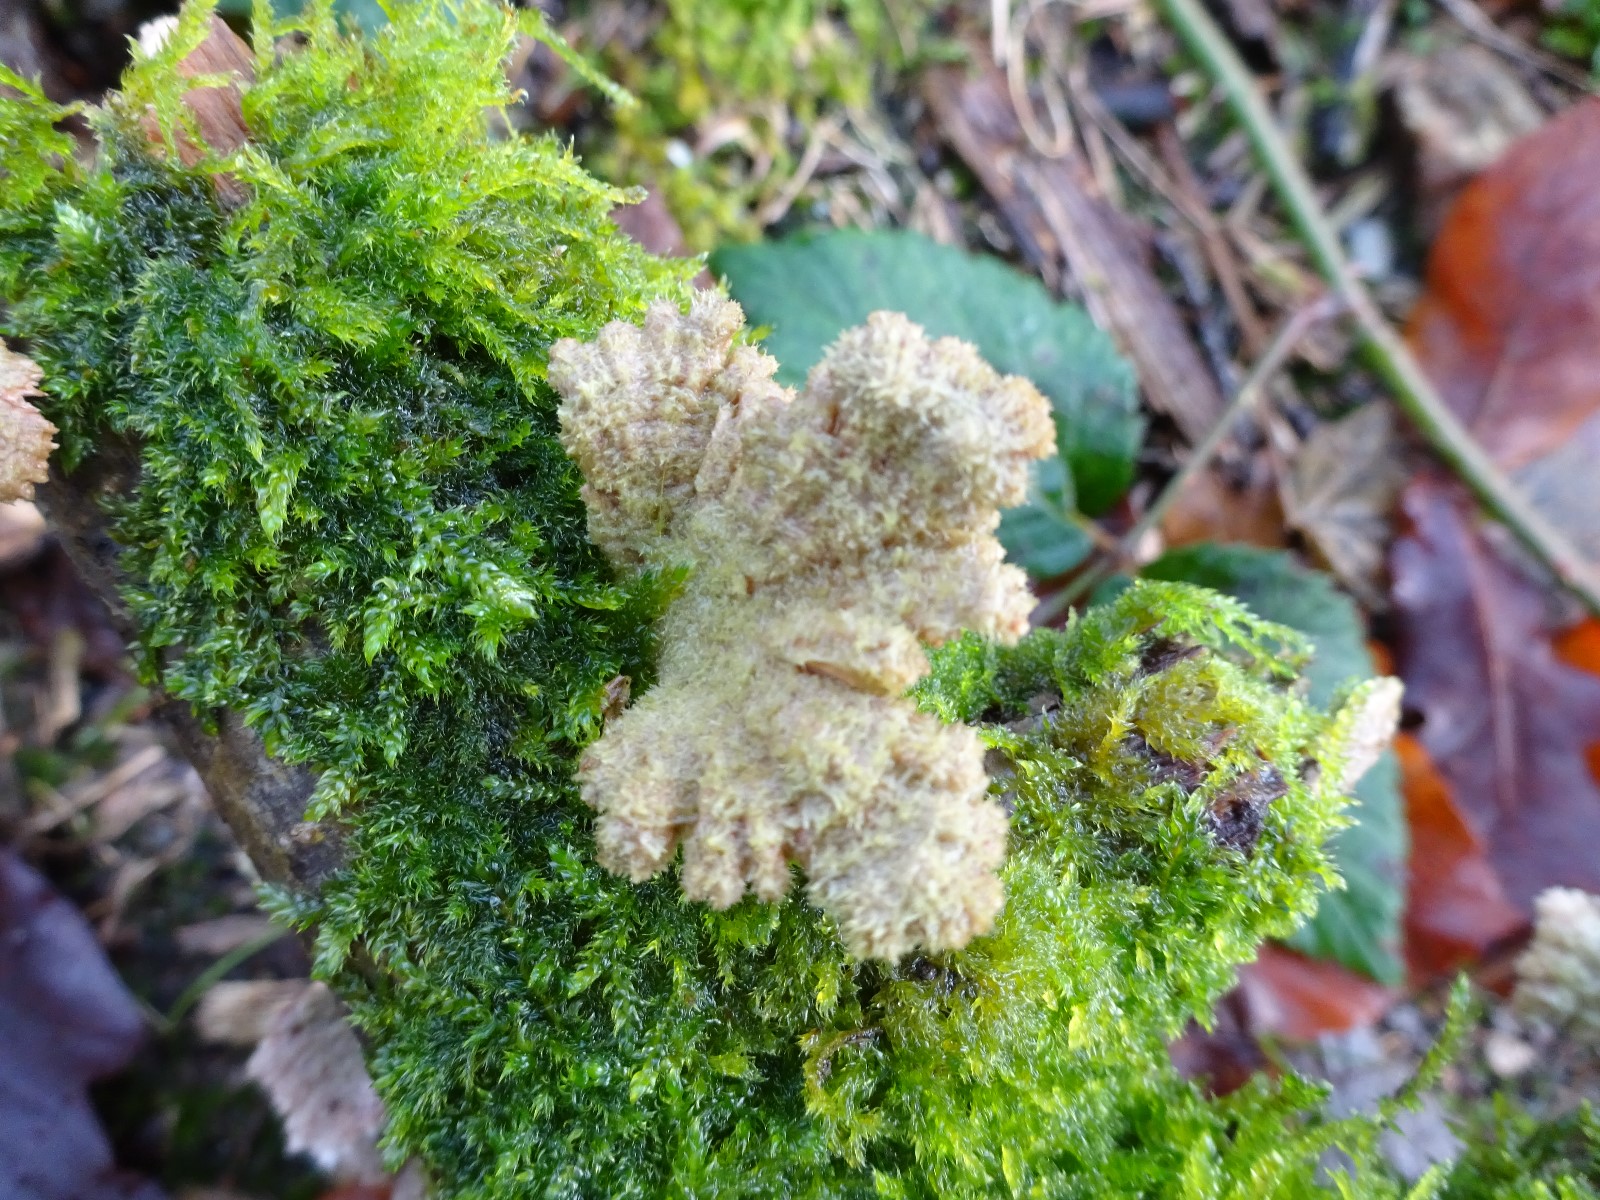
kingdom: Fungi
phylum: Basidiomycota
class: Agaricomycetes
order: Agaricales
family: Schizophyllaceae
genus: Schizophyllum
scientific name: Schizophyllum commune
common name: kløvblad
